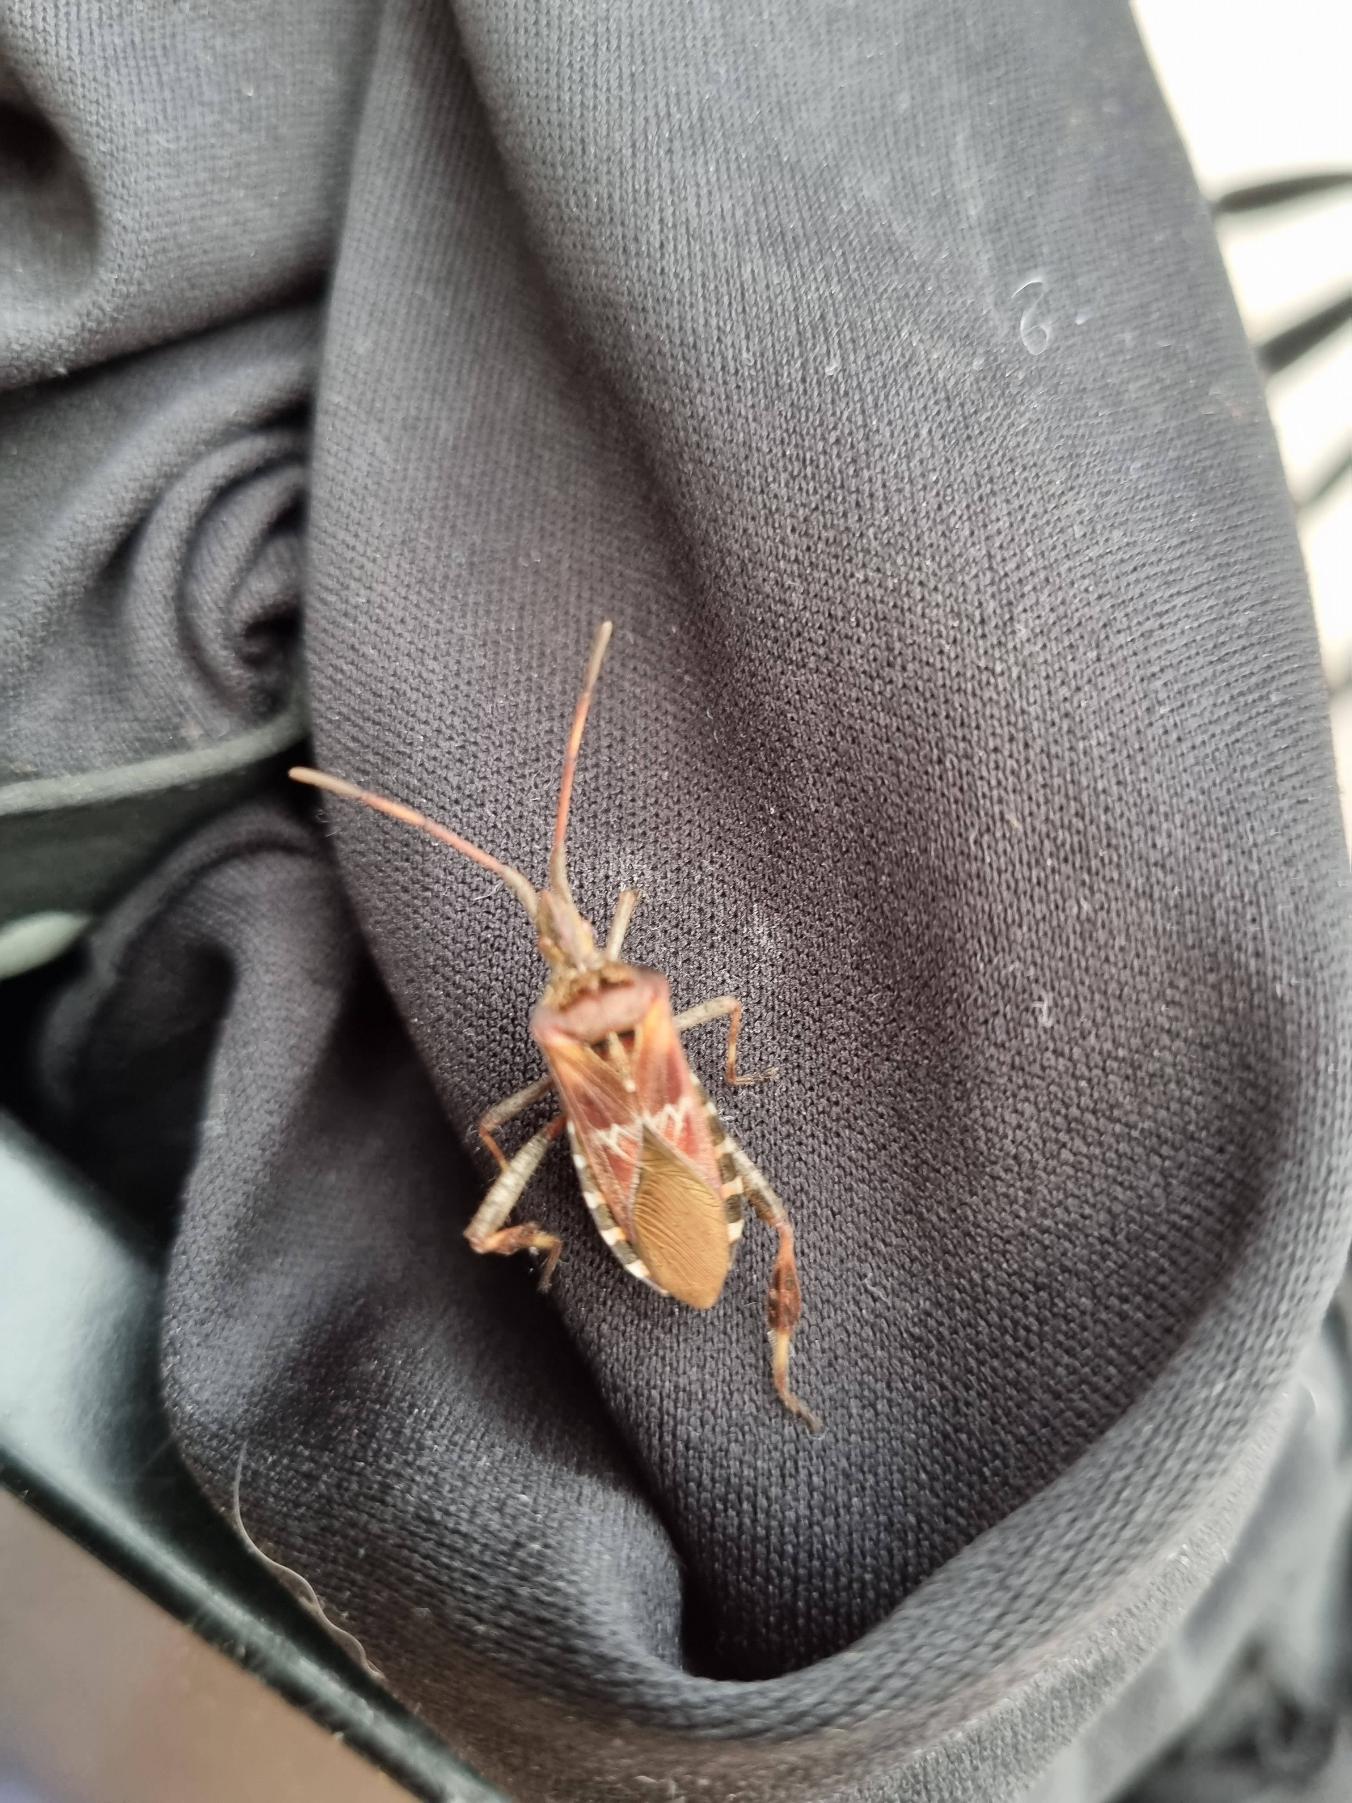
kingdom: Animalia
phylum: Arthropoda
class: Insecta
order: Hemiptera
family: Coreidae
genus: Leptoglossus
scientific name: Leptoglossus occidentalis
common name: Amerikansk fyrretæge
